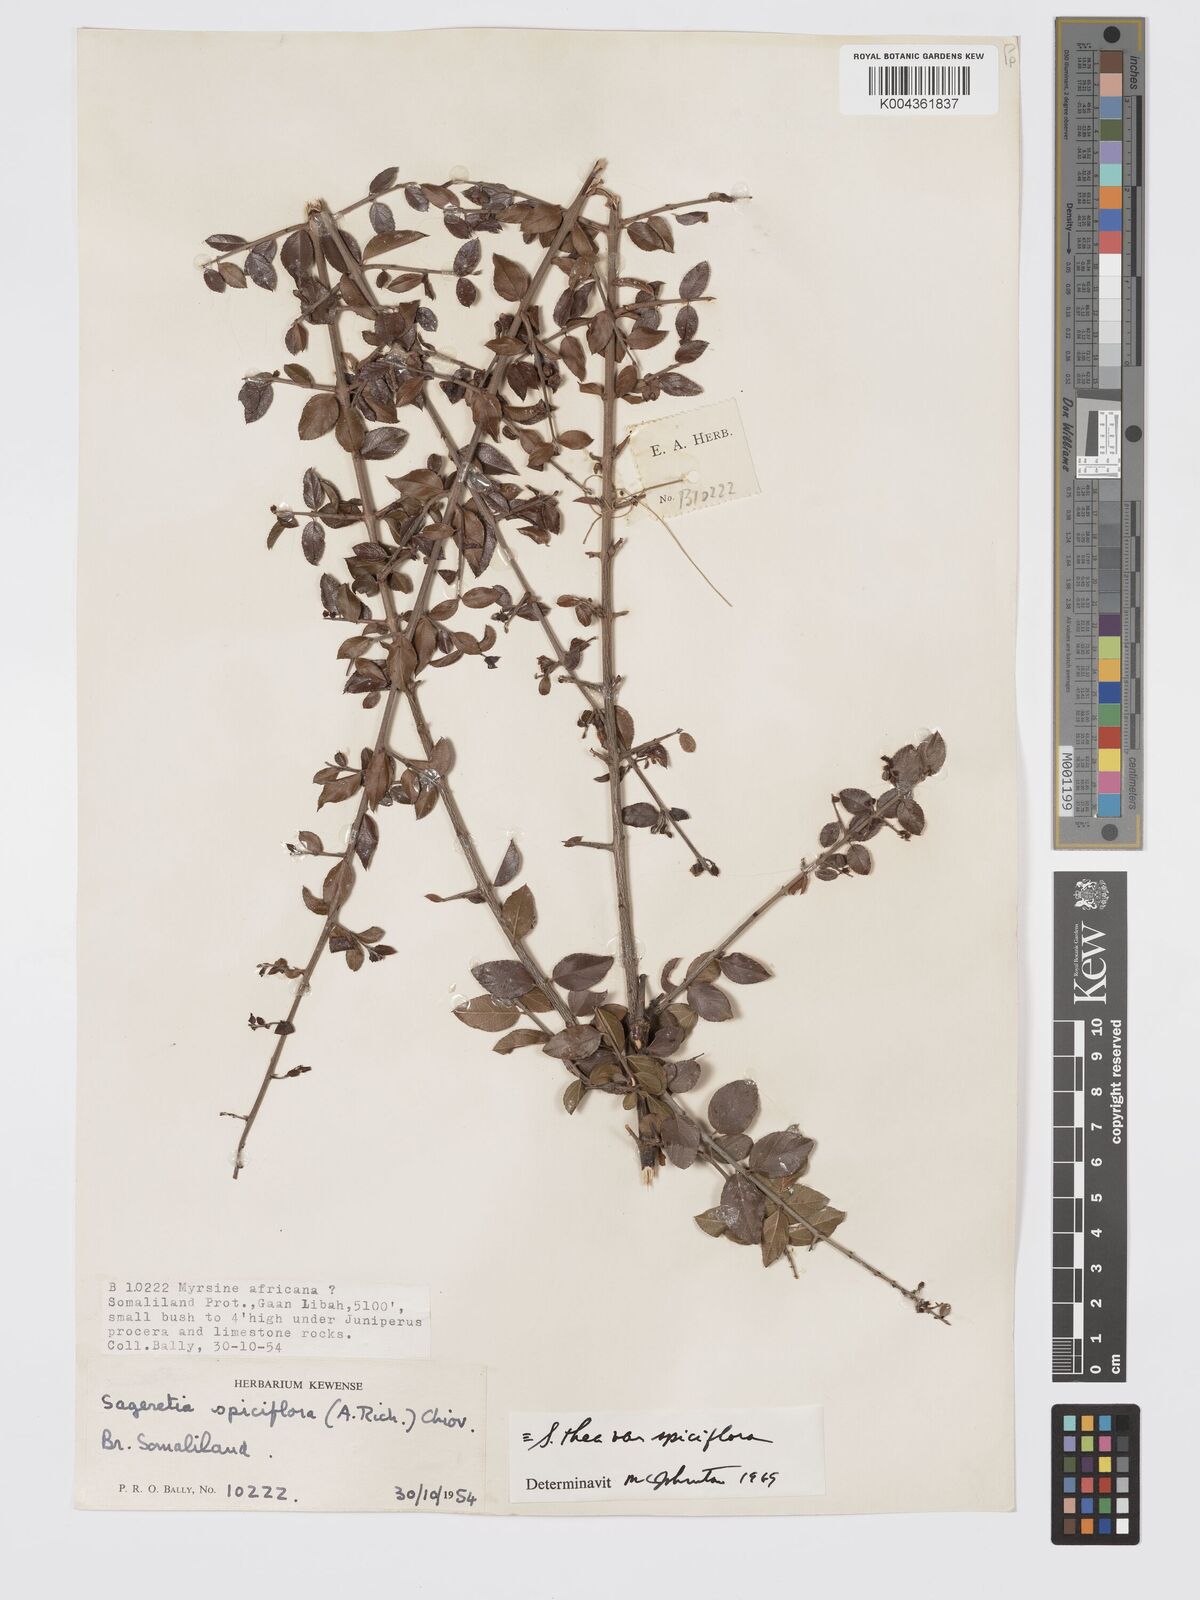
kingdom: Plantae
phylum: Tracheophyta
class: Magnoliopsida
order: Rosales
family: Rhamnaceae
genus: Sageretia
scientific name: Sageretia thea
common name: Pauper's-tea
